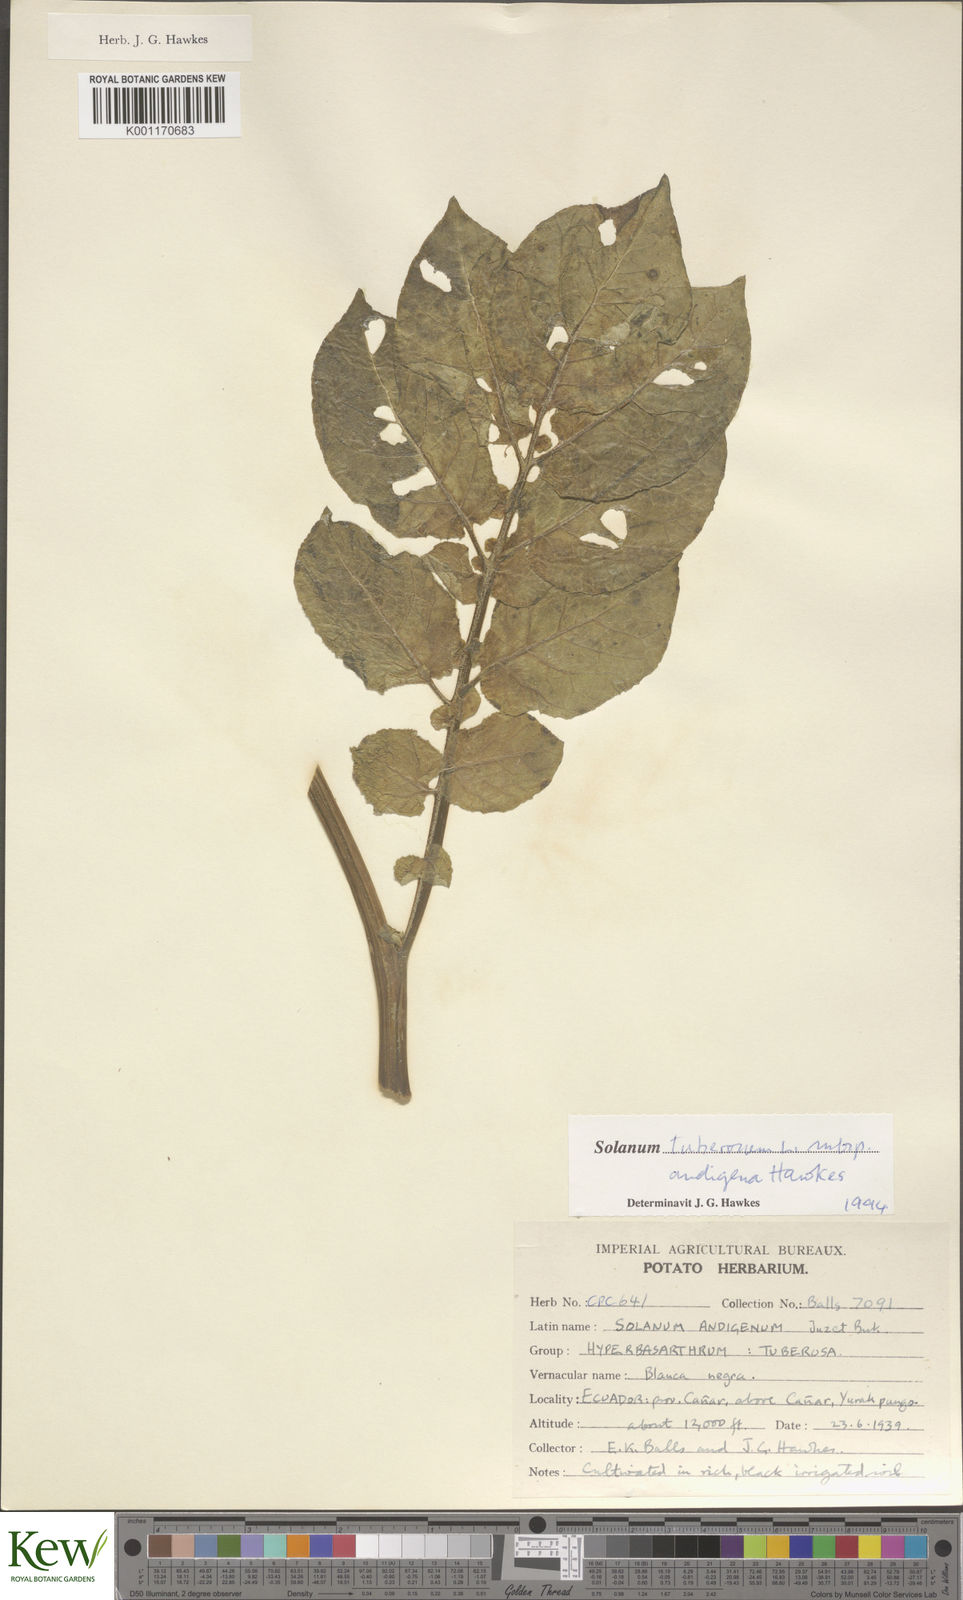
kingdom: Plantae
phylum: Tracheophyta
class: Magnoliopsida
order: Solanales
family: Solanaceae
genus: Solanum
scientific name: Solanum tuberosum
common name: Potato
